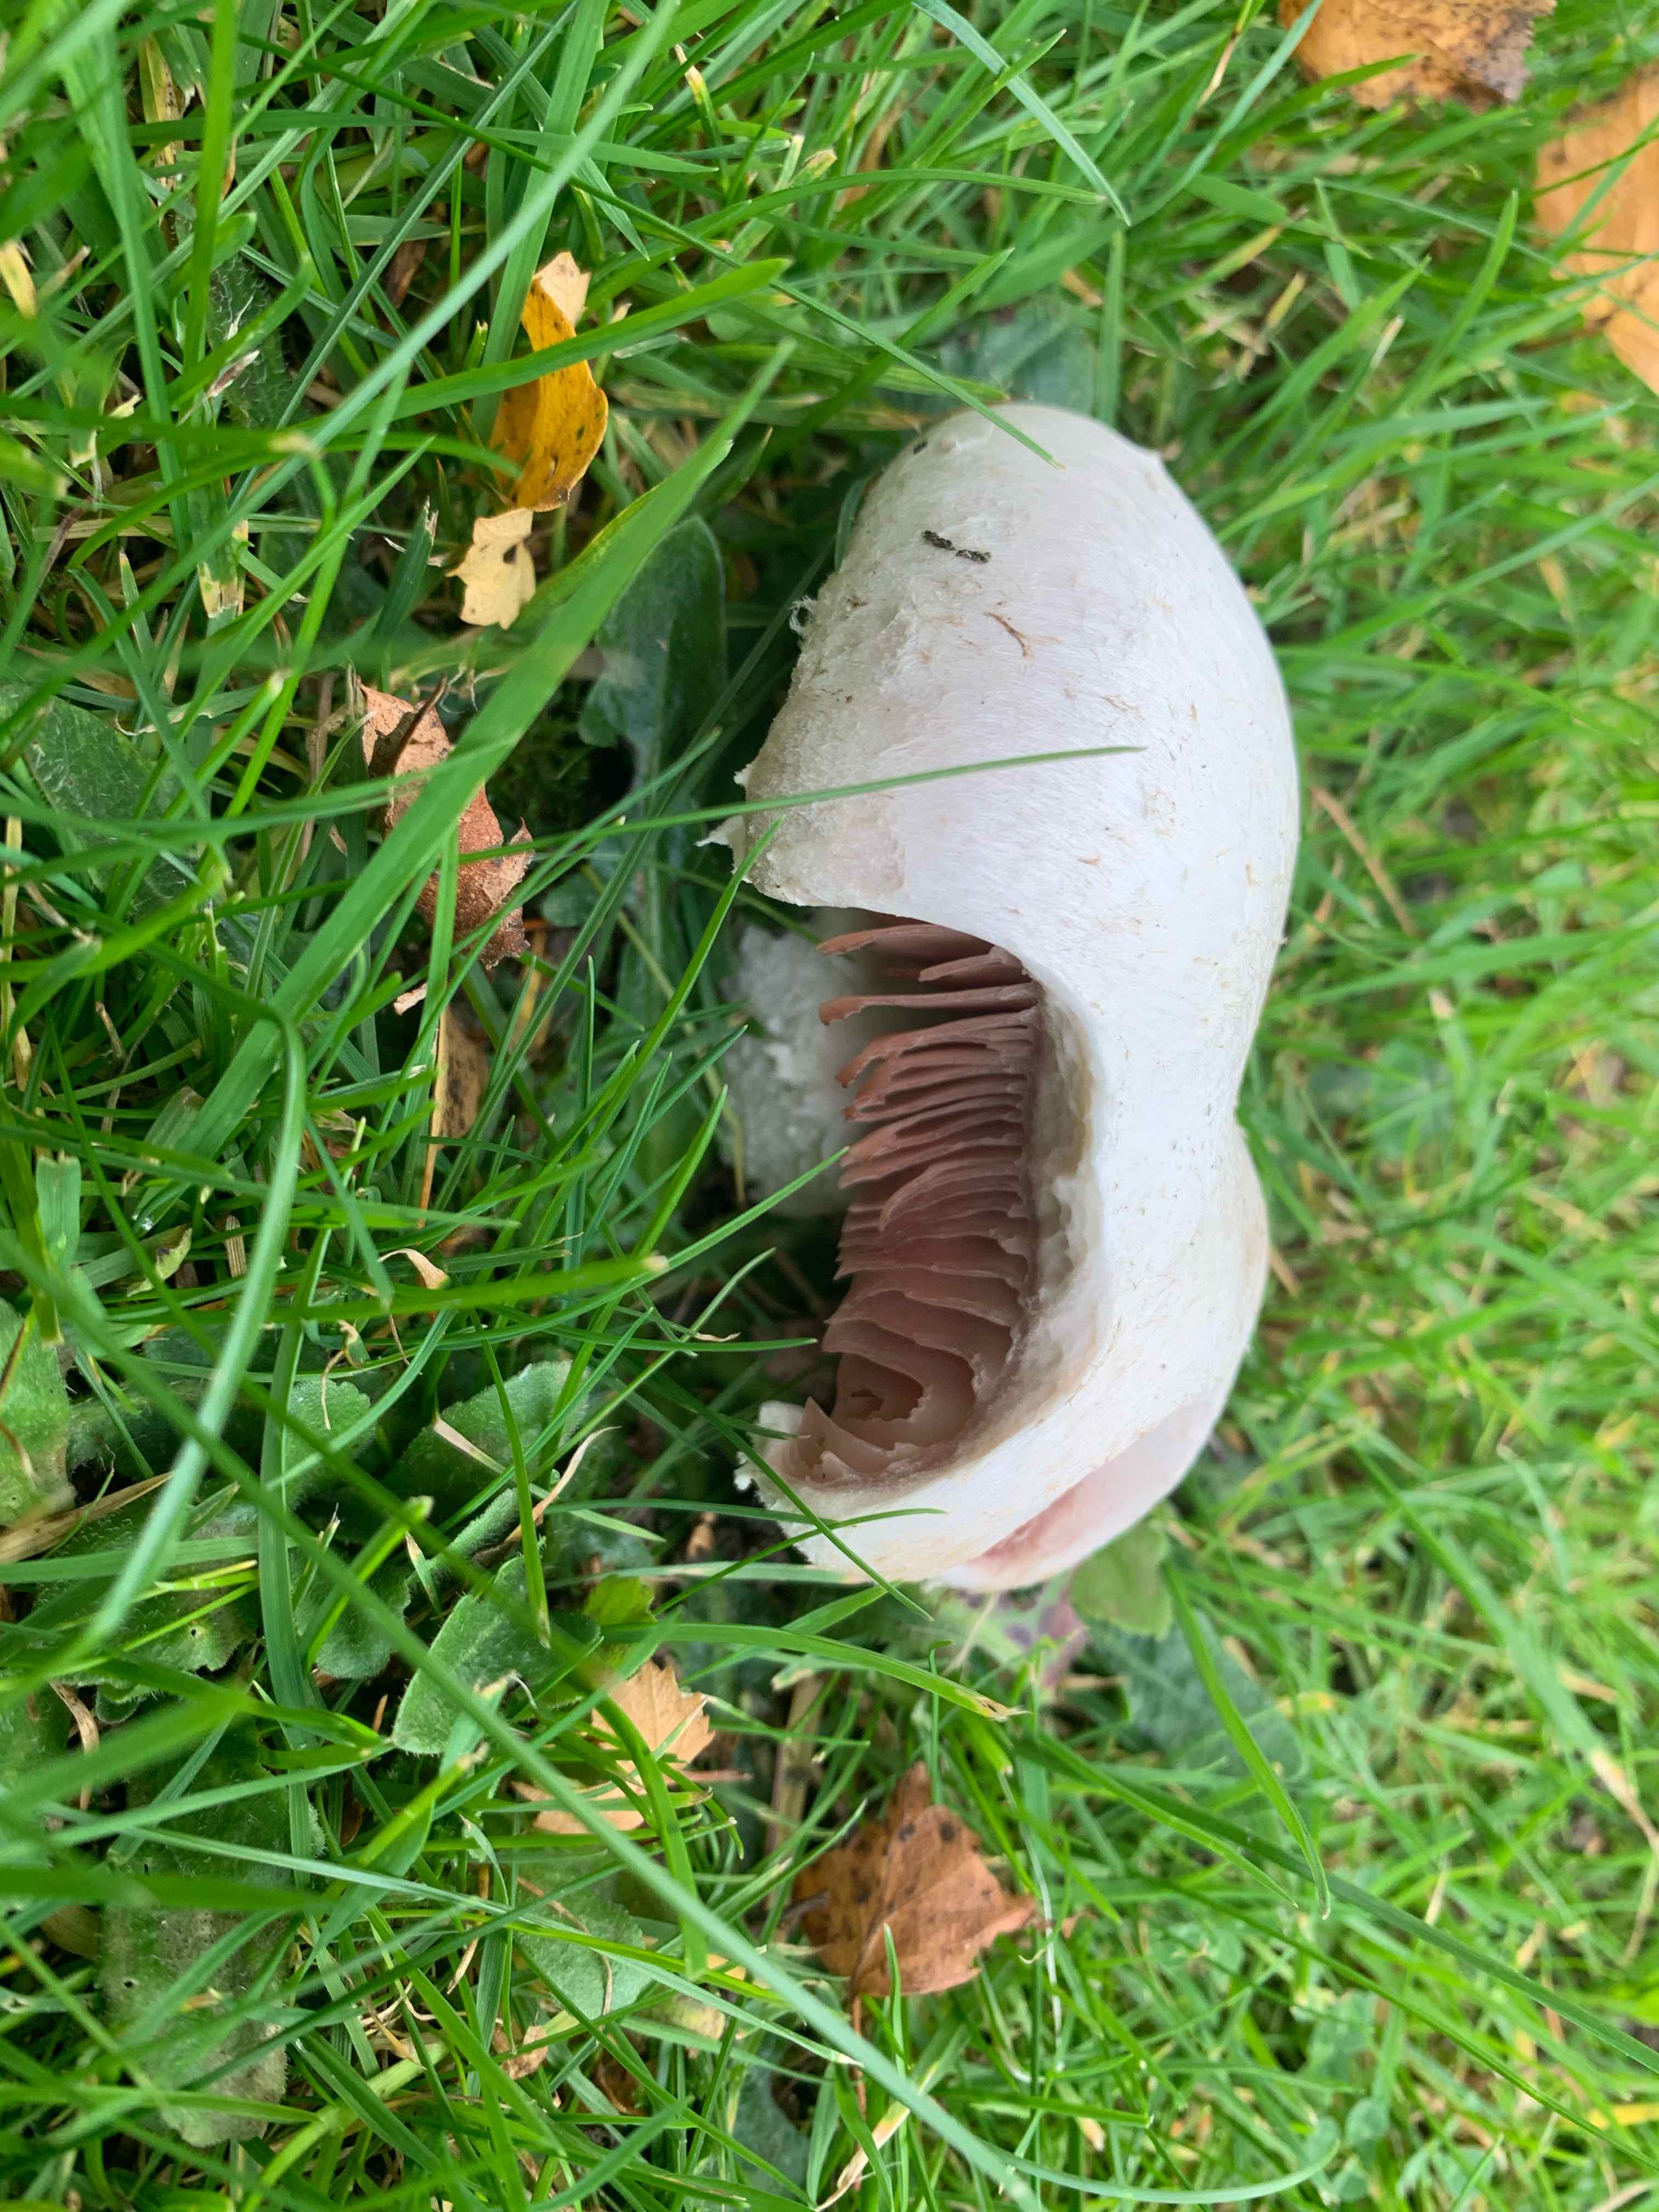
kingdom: Fungi
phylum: Basidiomycota
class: Agaricomycetes
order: Agaricales
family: Agaricaceae
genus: Agaricus
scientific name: Agaricus campestris
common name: mark-champignon
